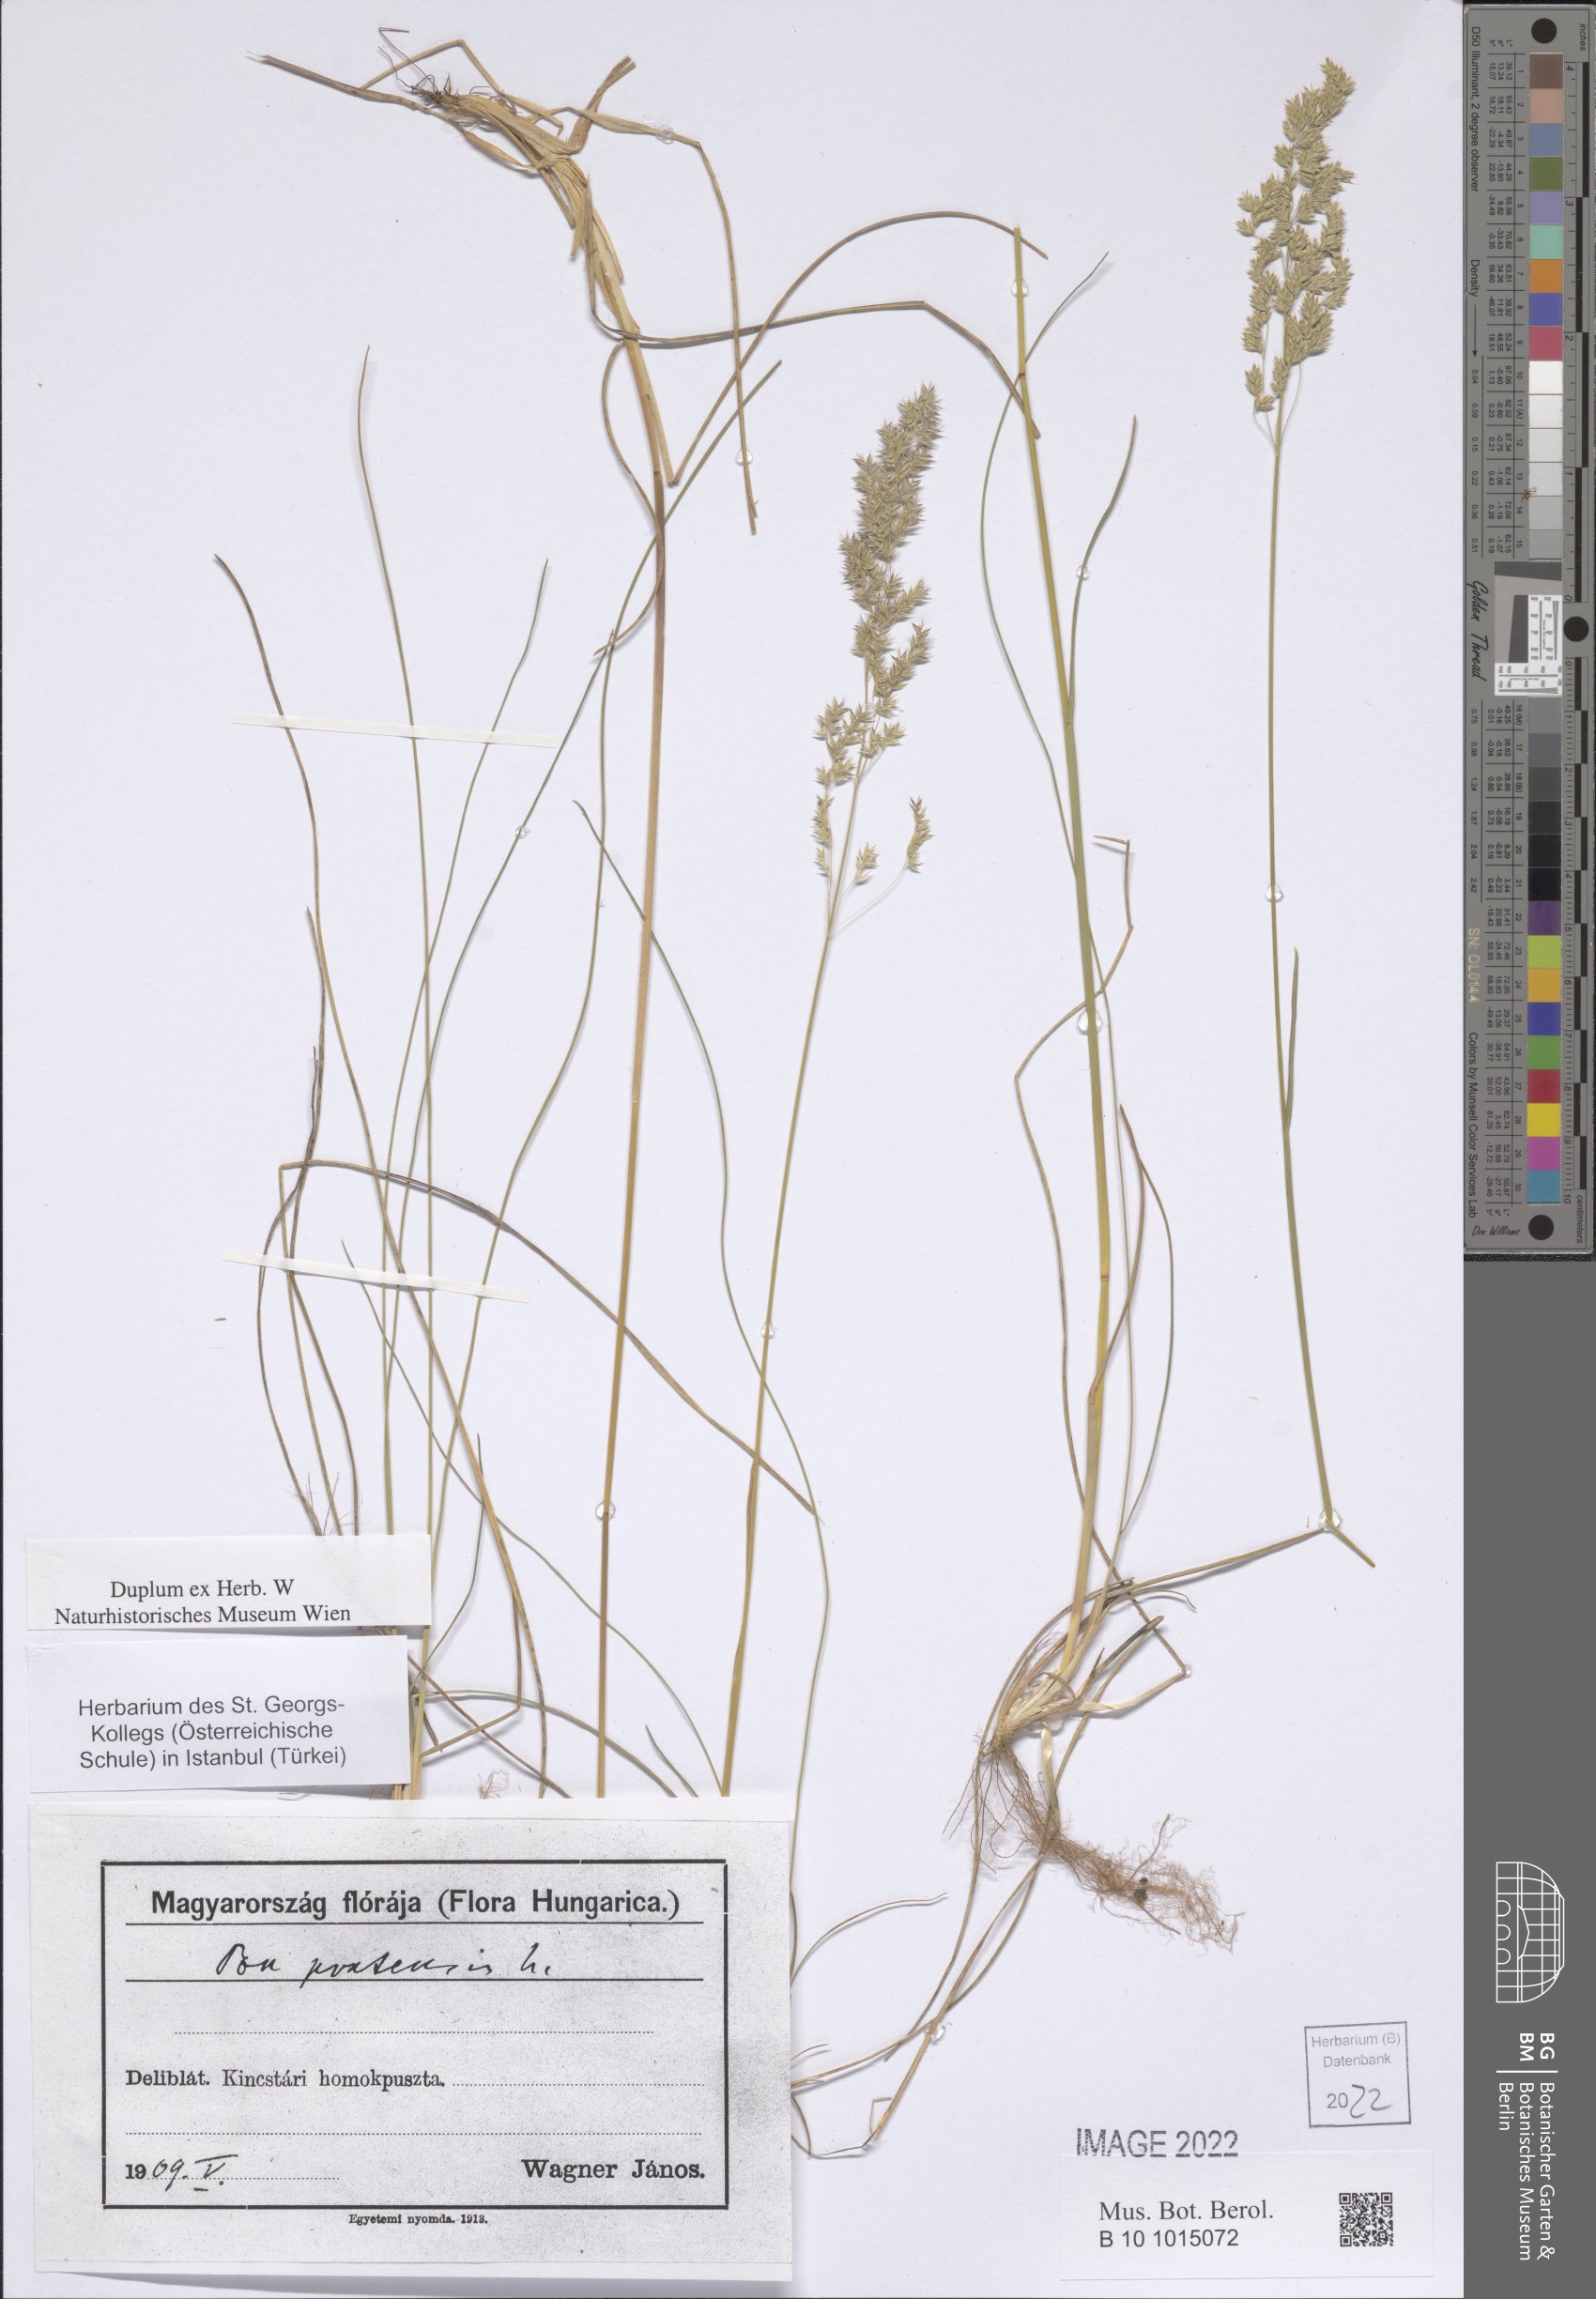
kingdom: Plantae
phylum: Tracheophyta
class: Liliopsida
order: Poales
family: Poaceae
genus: Poa
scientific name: Poa pratensis
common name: Kentucky bluegrass
